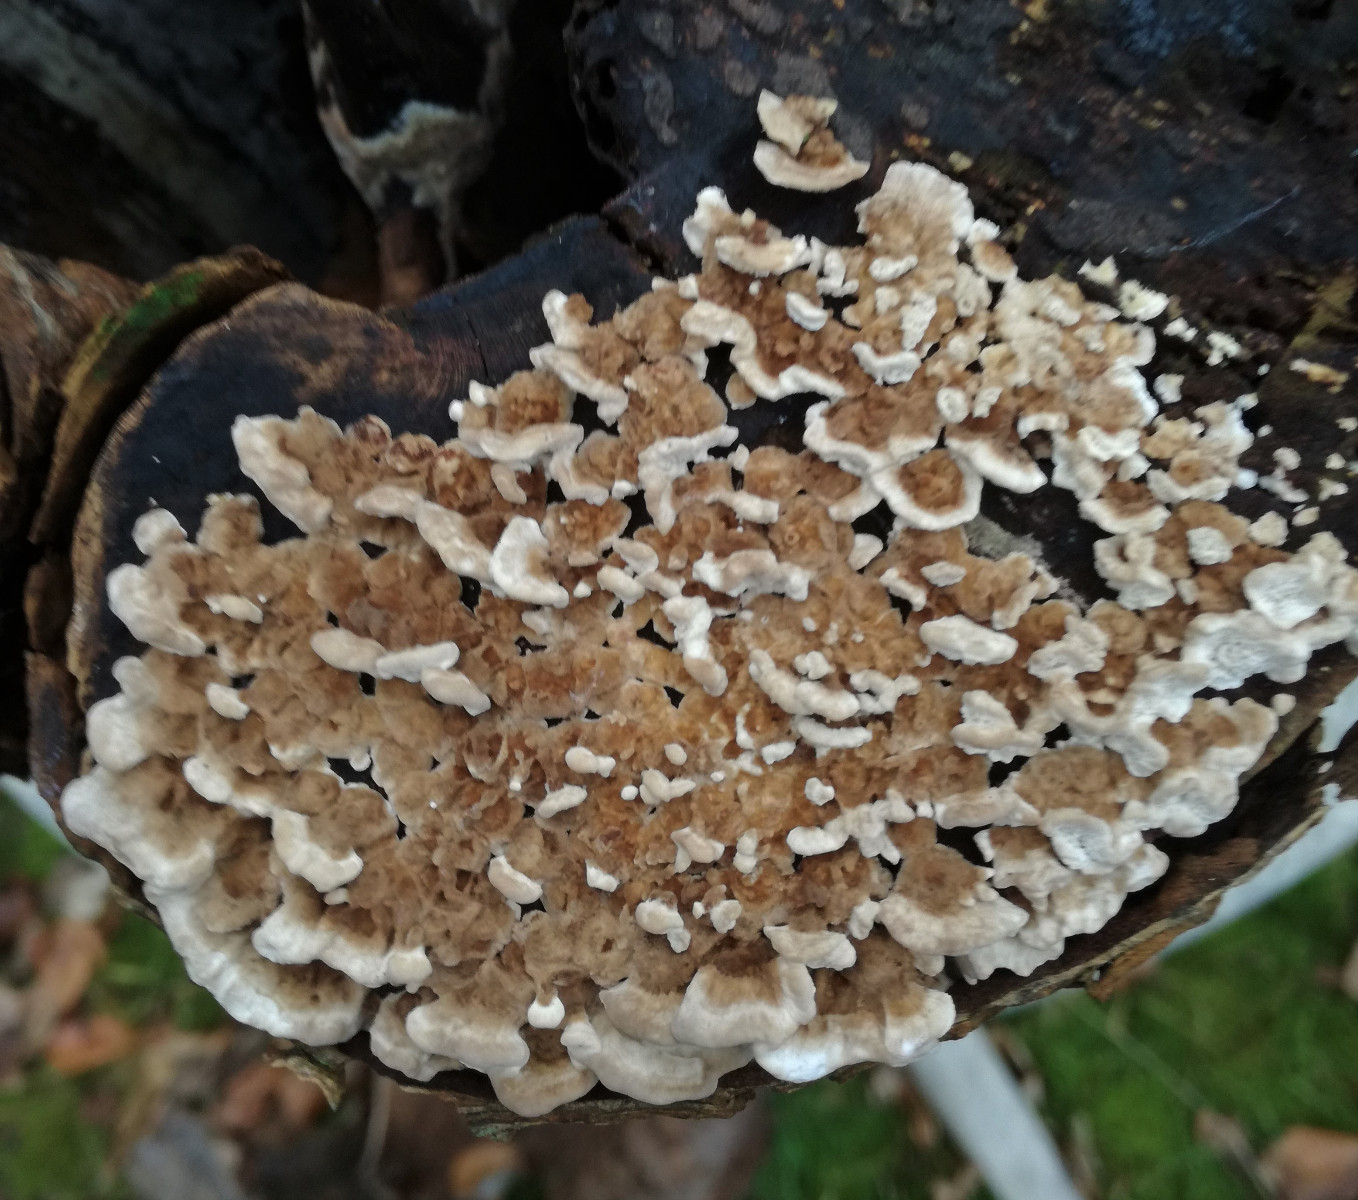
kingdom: Fungi
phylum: Basidiomycota
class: Agaricomycetes
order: Polyporales
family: Polyporaceae
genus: Trametes
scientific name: Trametes versicolor
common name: broget læderporesvamp
